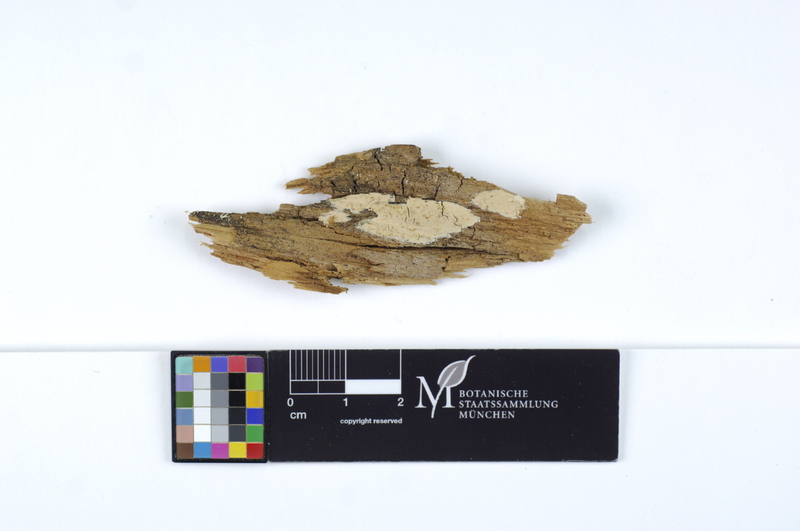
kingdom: Plantae
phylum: Tracheophyta
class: Pinopsida
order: Pinales
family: Pinaceae
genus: Pinus
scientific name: Pinus
